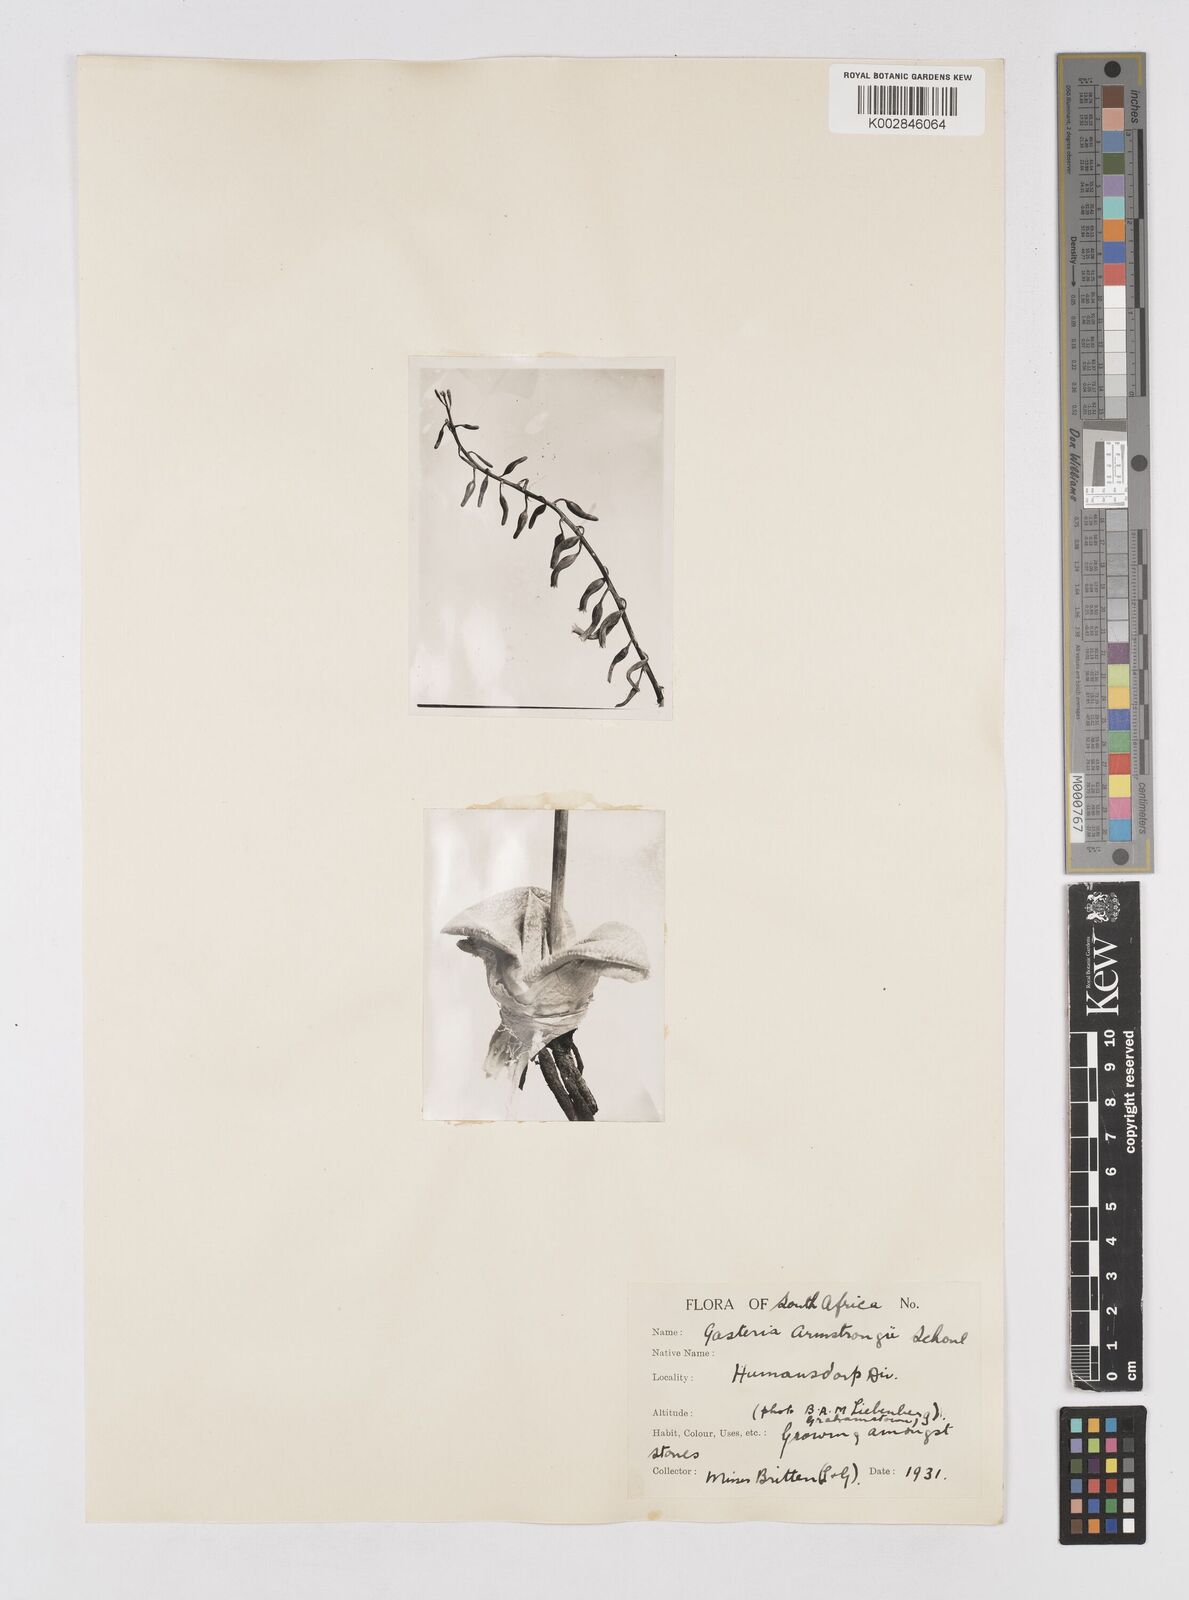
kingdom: Plantae
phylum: Tracheophyta
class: Liliopsida
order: Asparagales
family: Asphodelaceae
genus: Gasteria
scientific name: Gasteria nitida
